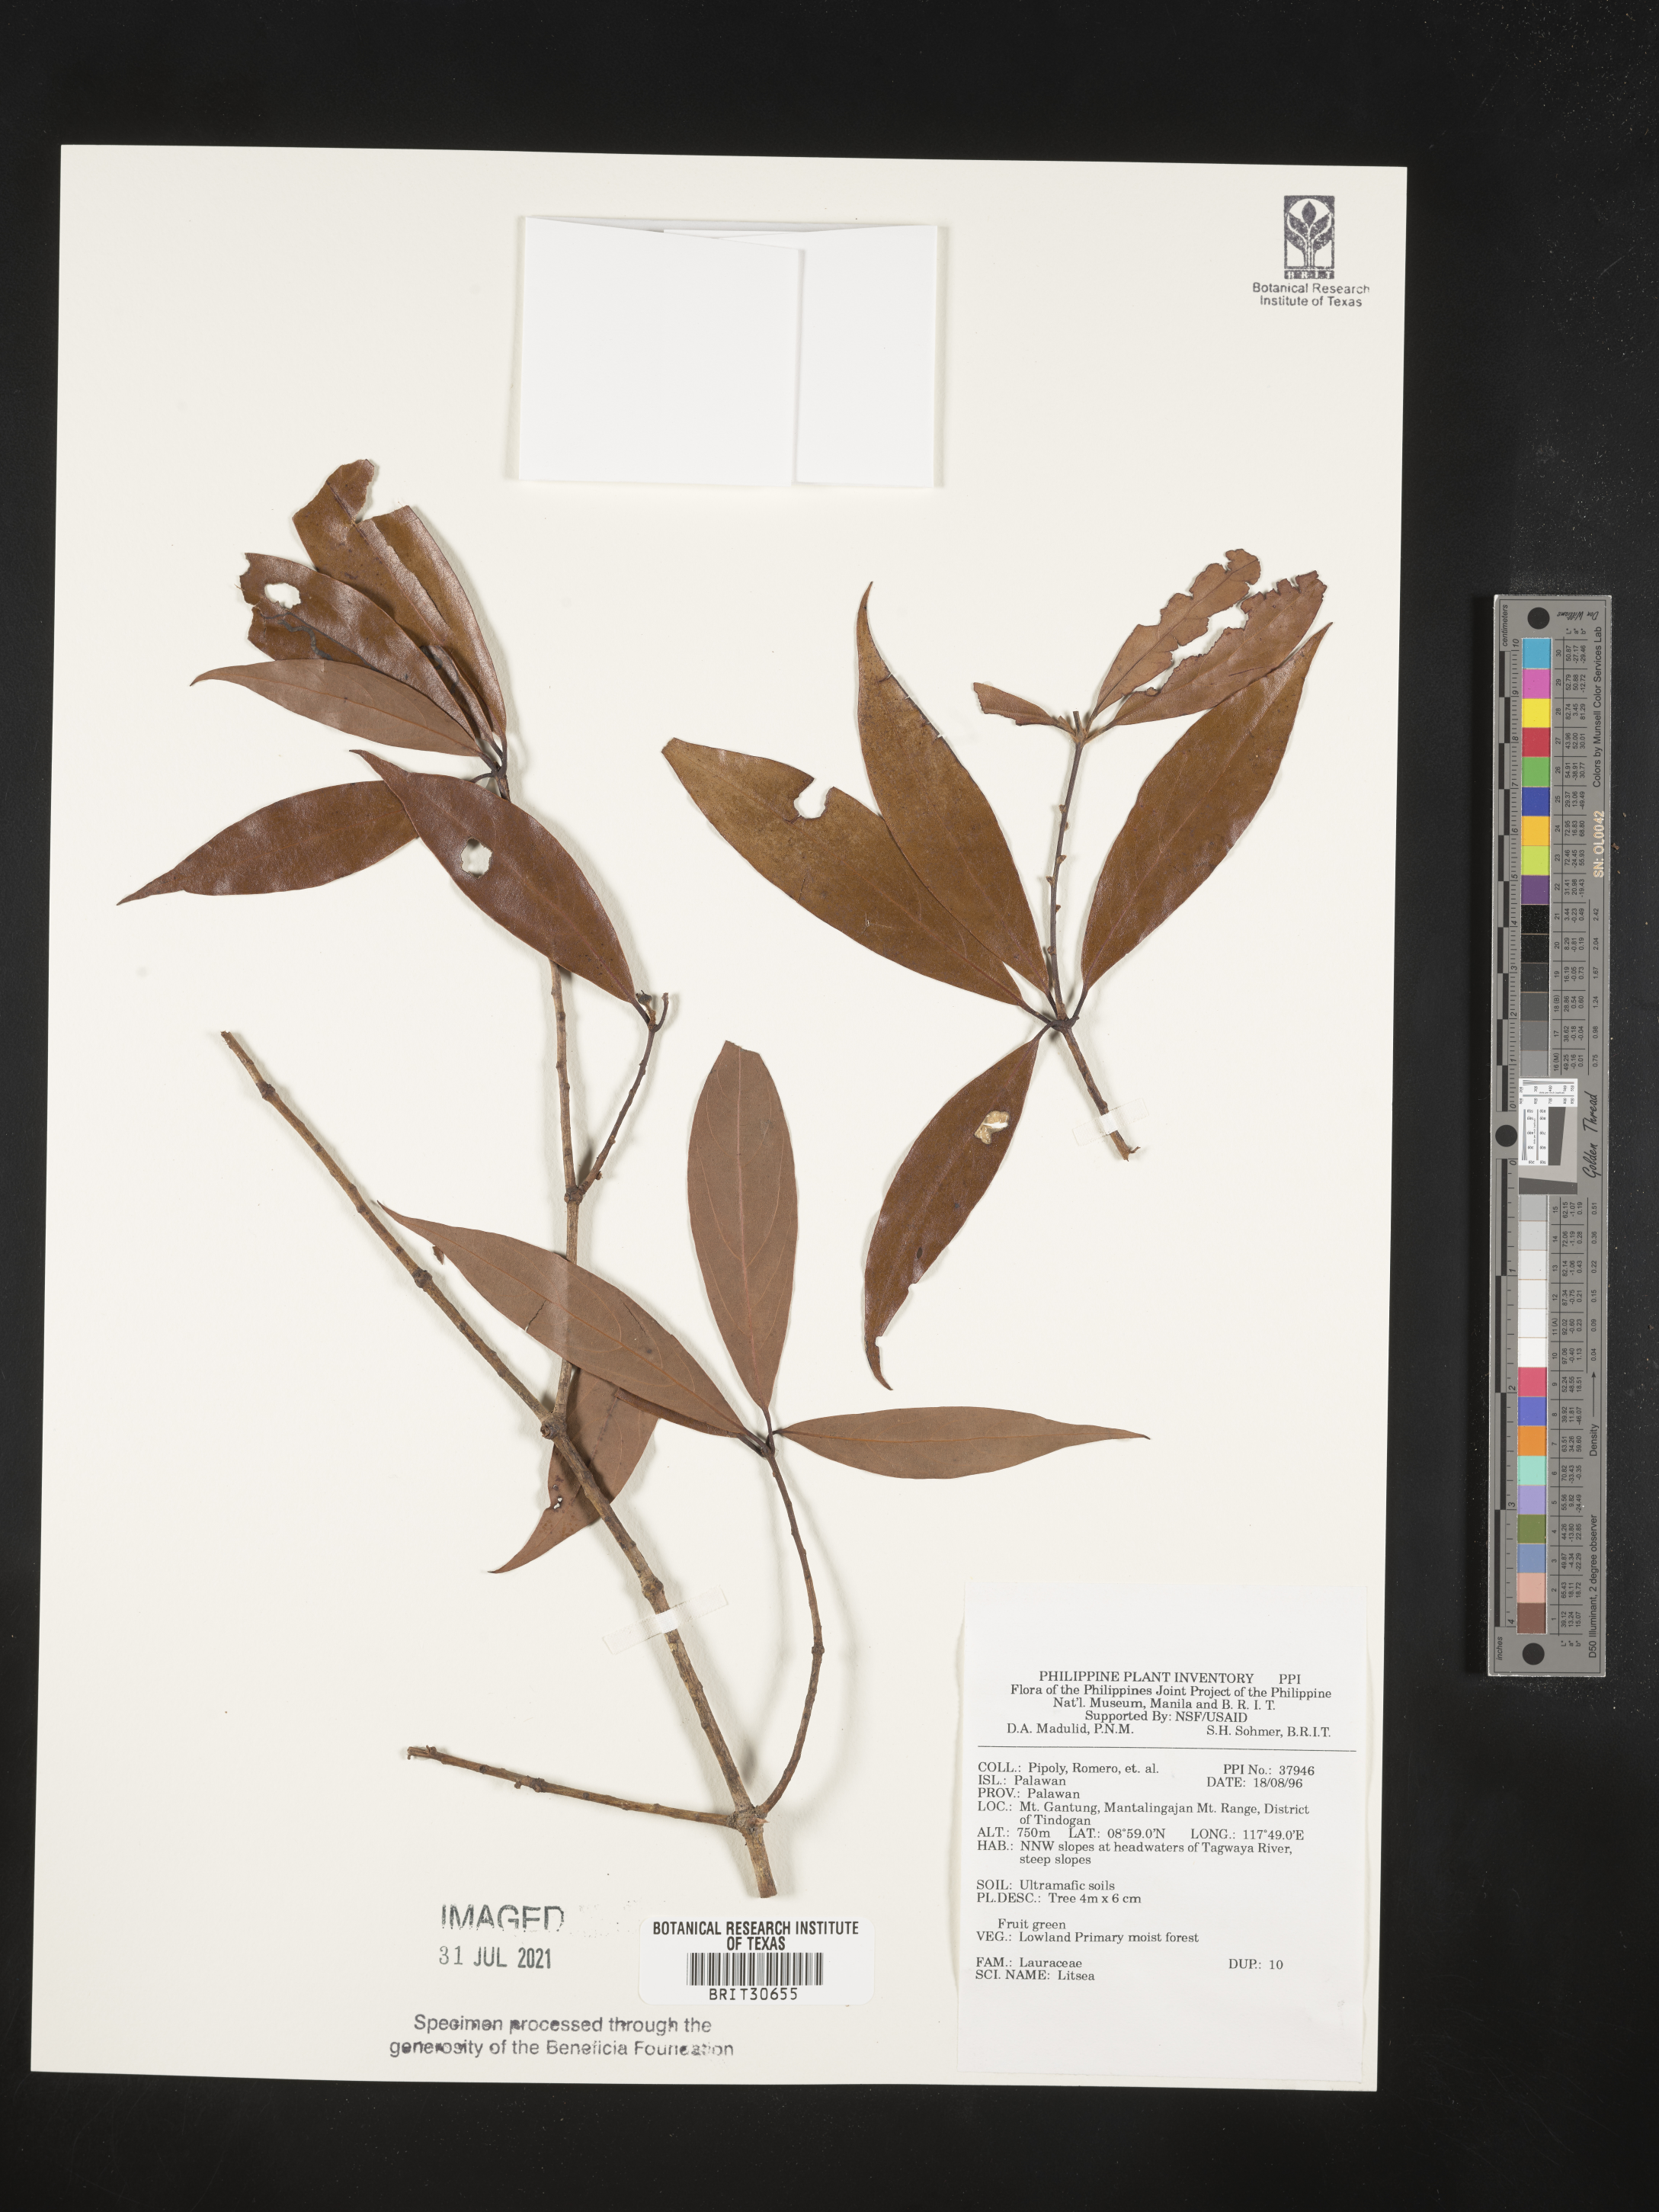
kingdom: Plantae
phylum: Tracheophyta
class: Magnoliopsida
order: Laurales
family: Lauraceae
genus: Litsea
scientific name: Litsea
